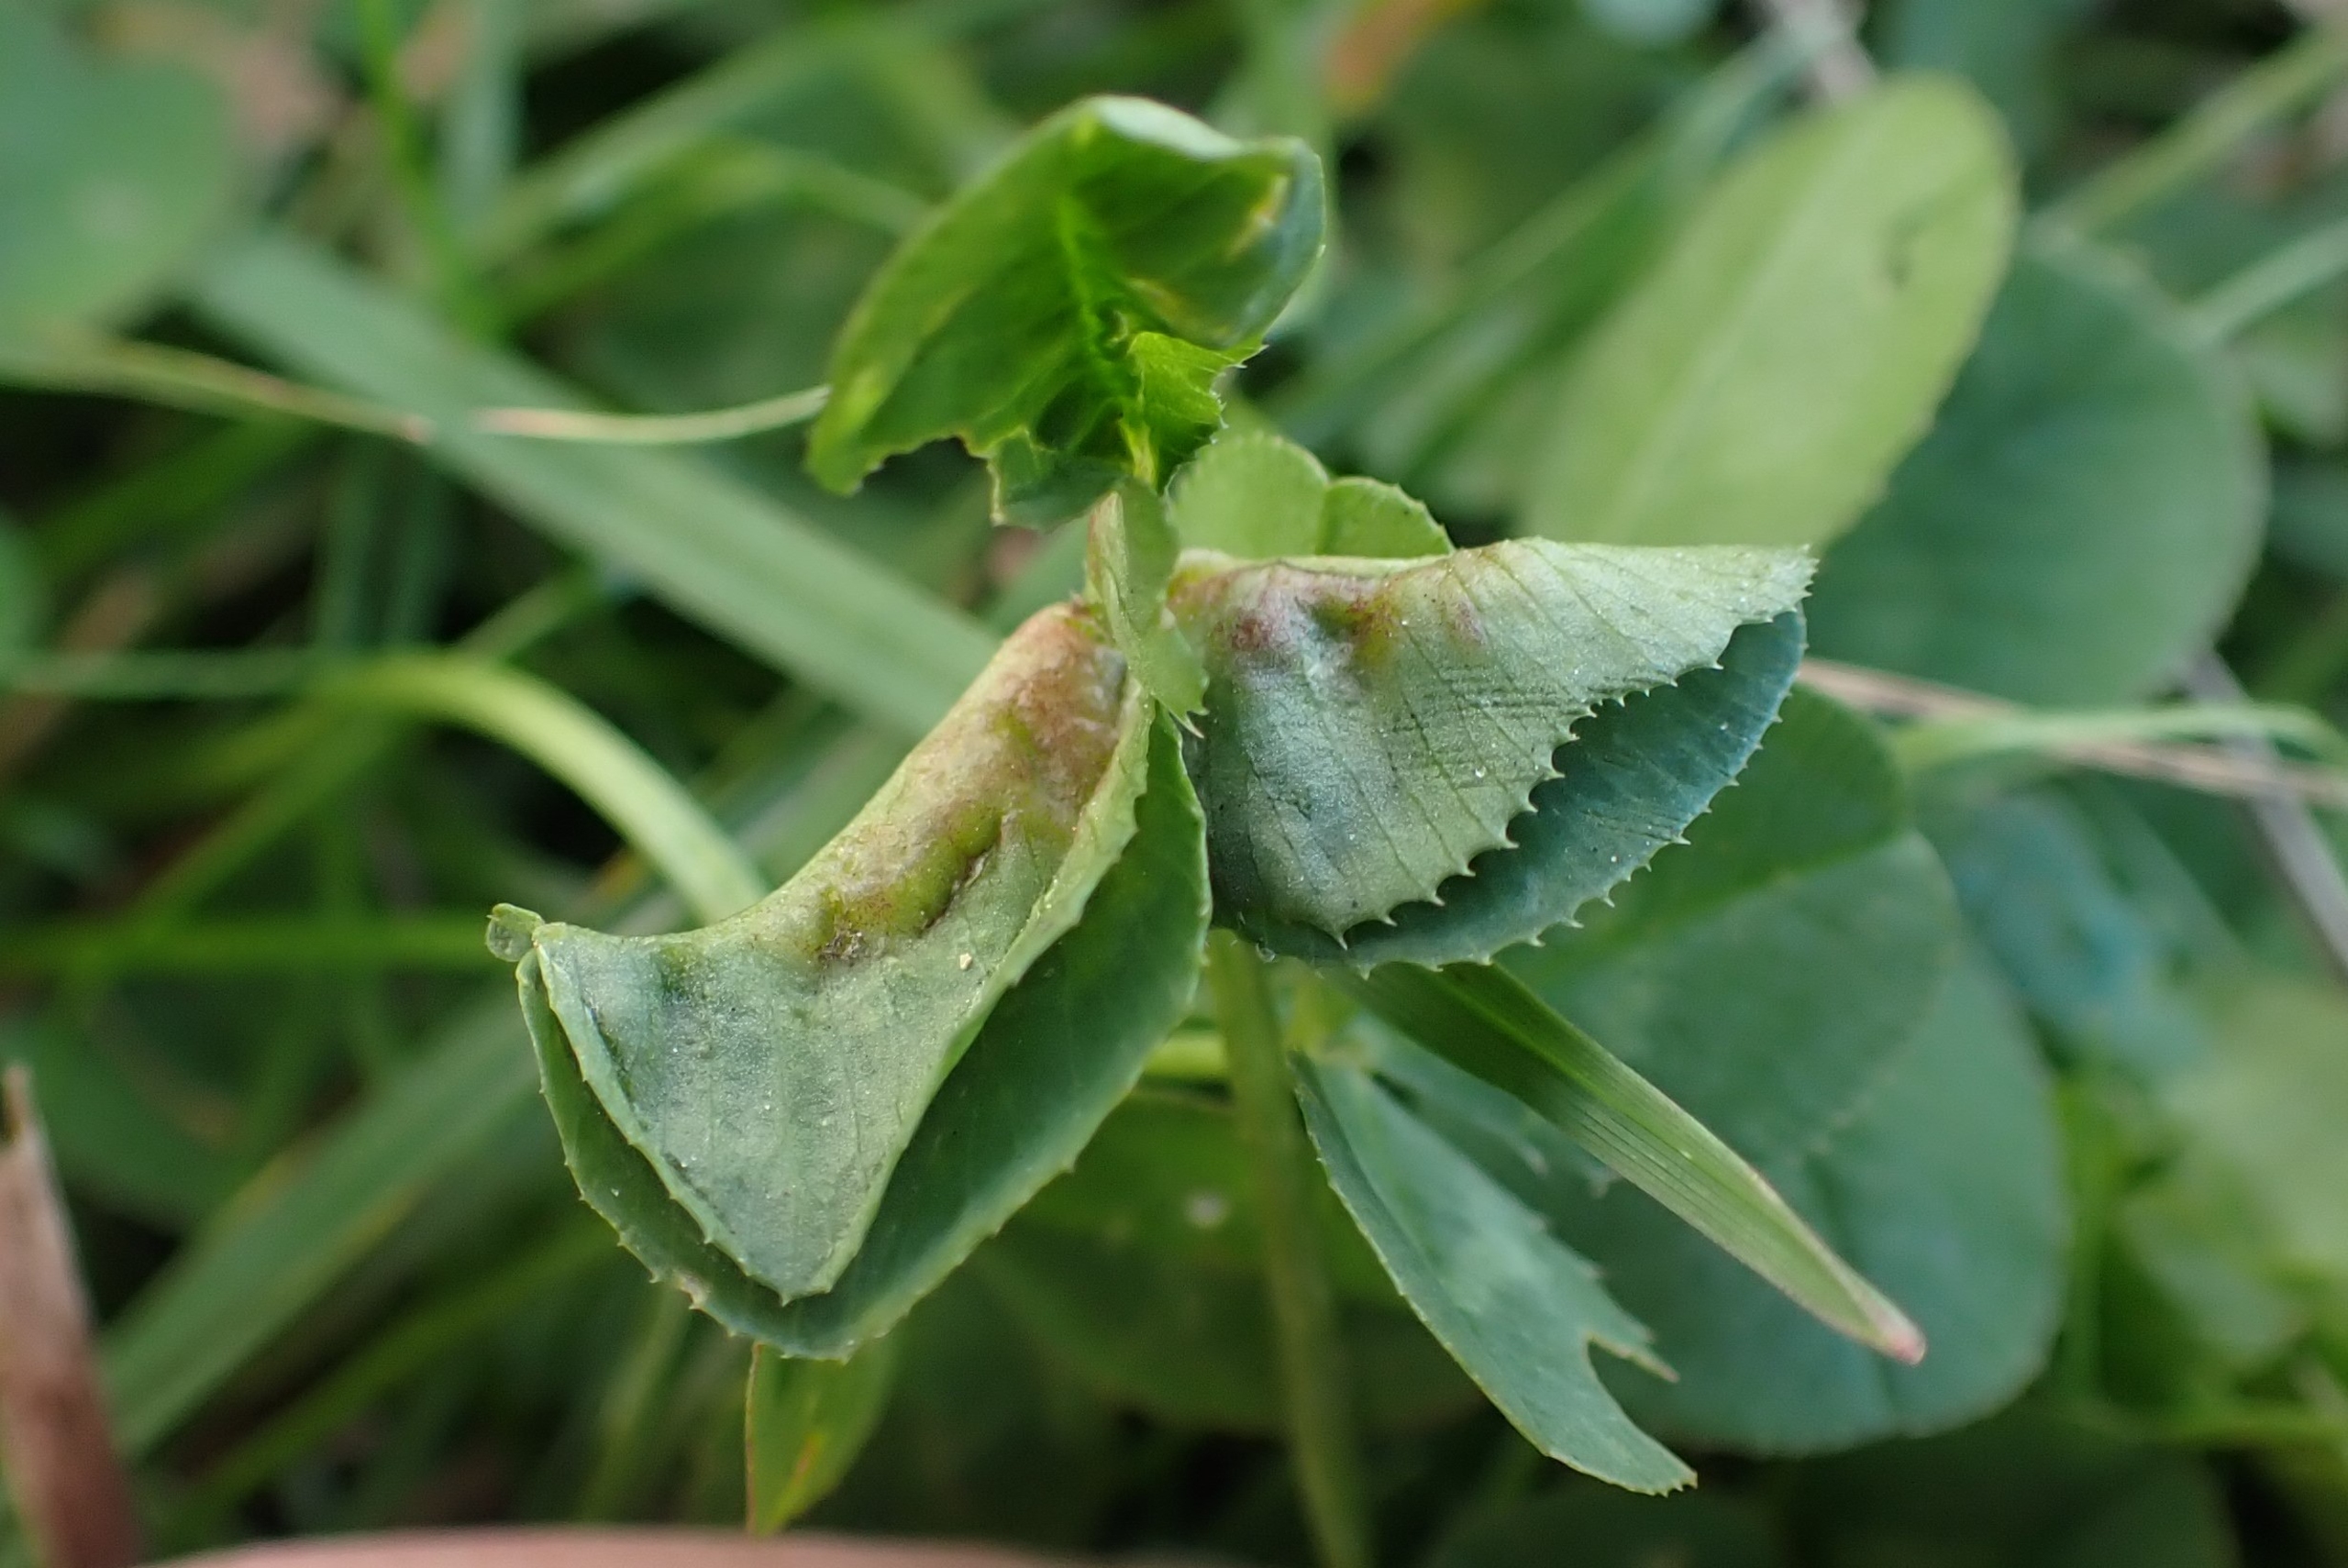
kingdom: Animalia
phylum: Arthropoda
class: Insecta
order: Diptera
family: Cecidomyiidae
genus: Dasineura
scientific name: Dasineura trifolii
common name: Kløverbladgalmyg
